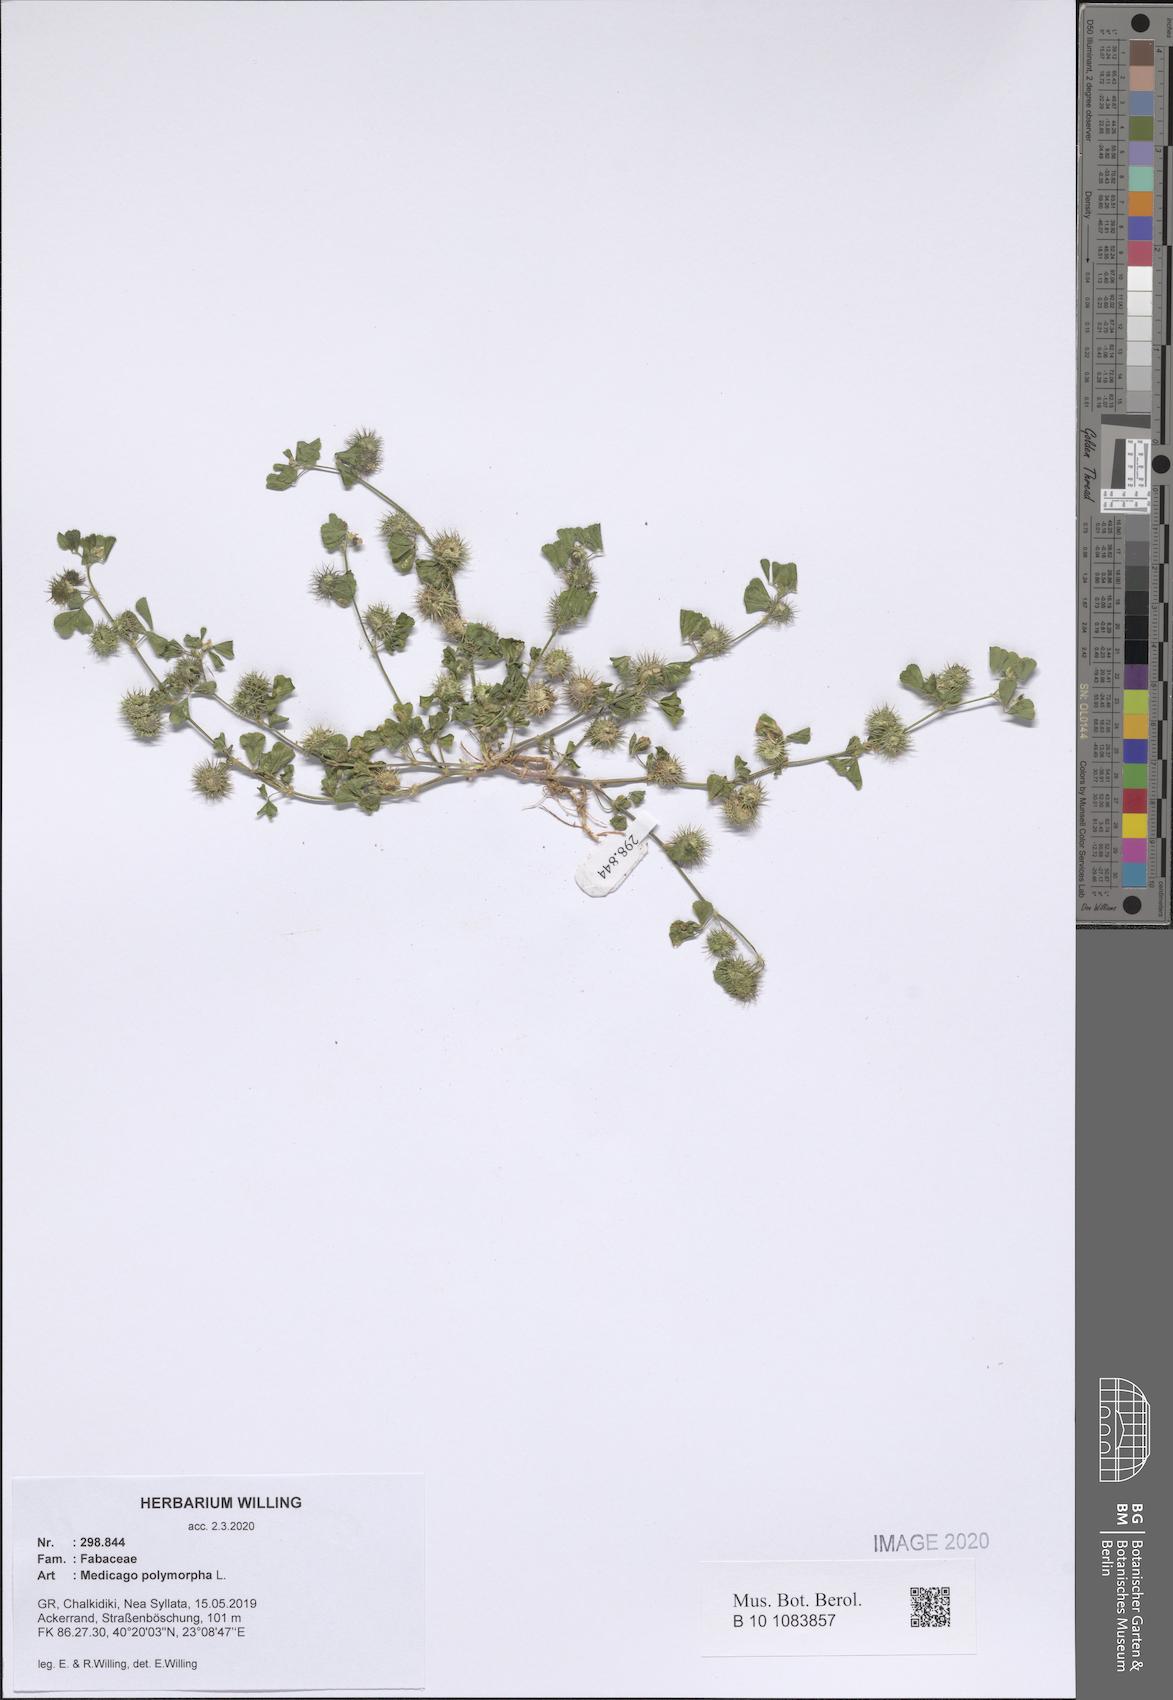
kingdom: Plantae
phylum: Tracheophyta
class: Magnoliopsida
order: Fabales
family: Fabaceae
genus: Medicago
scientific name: Medicago polymorpha
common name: Burclover
